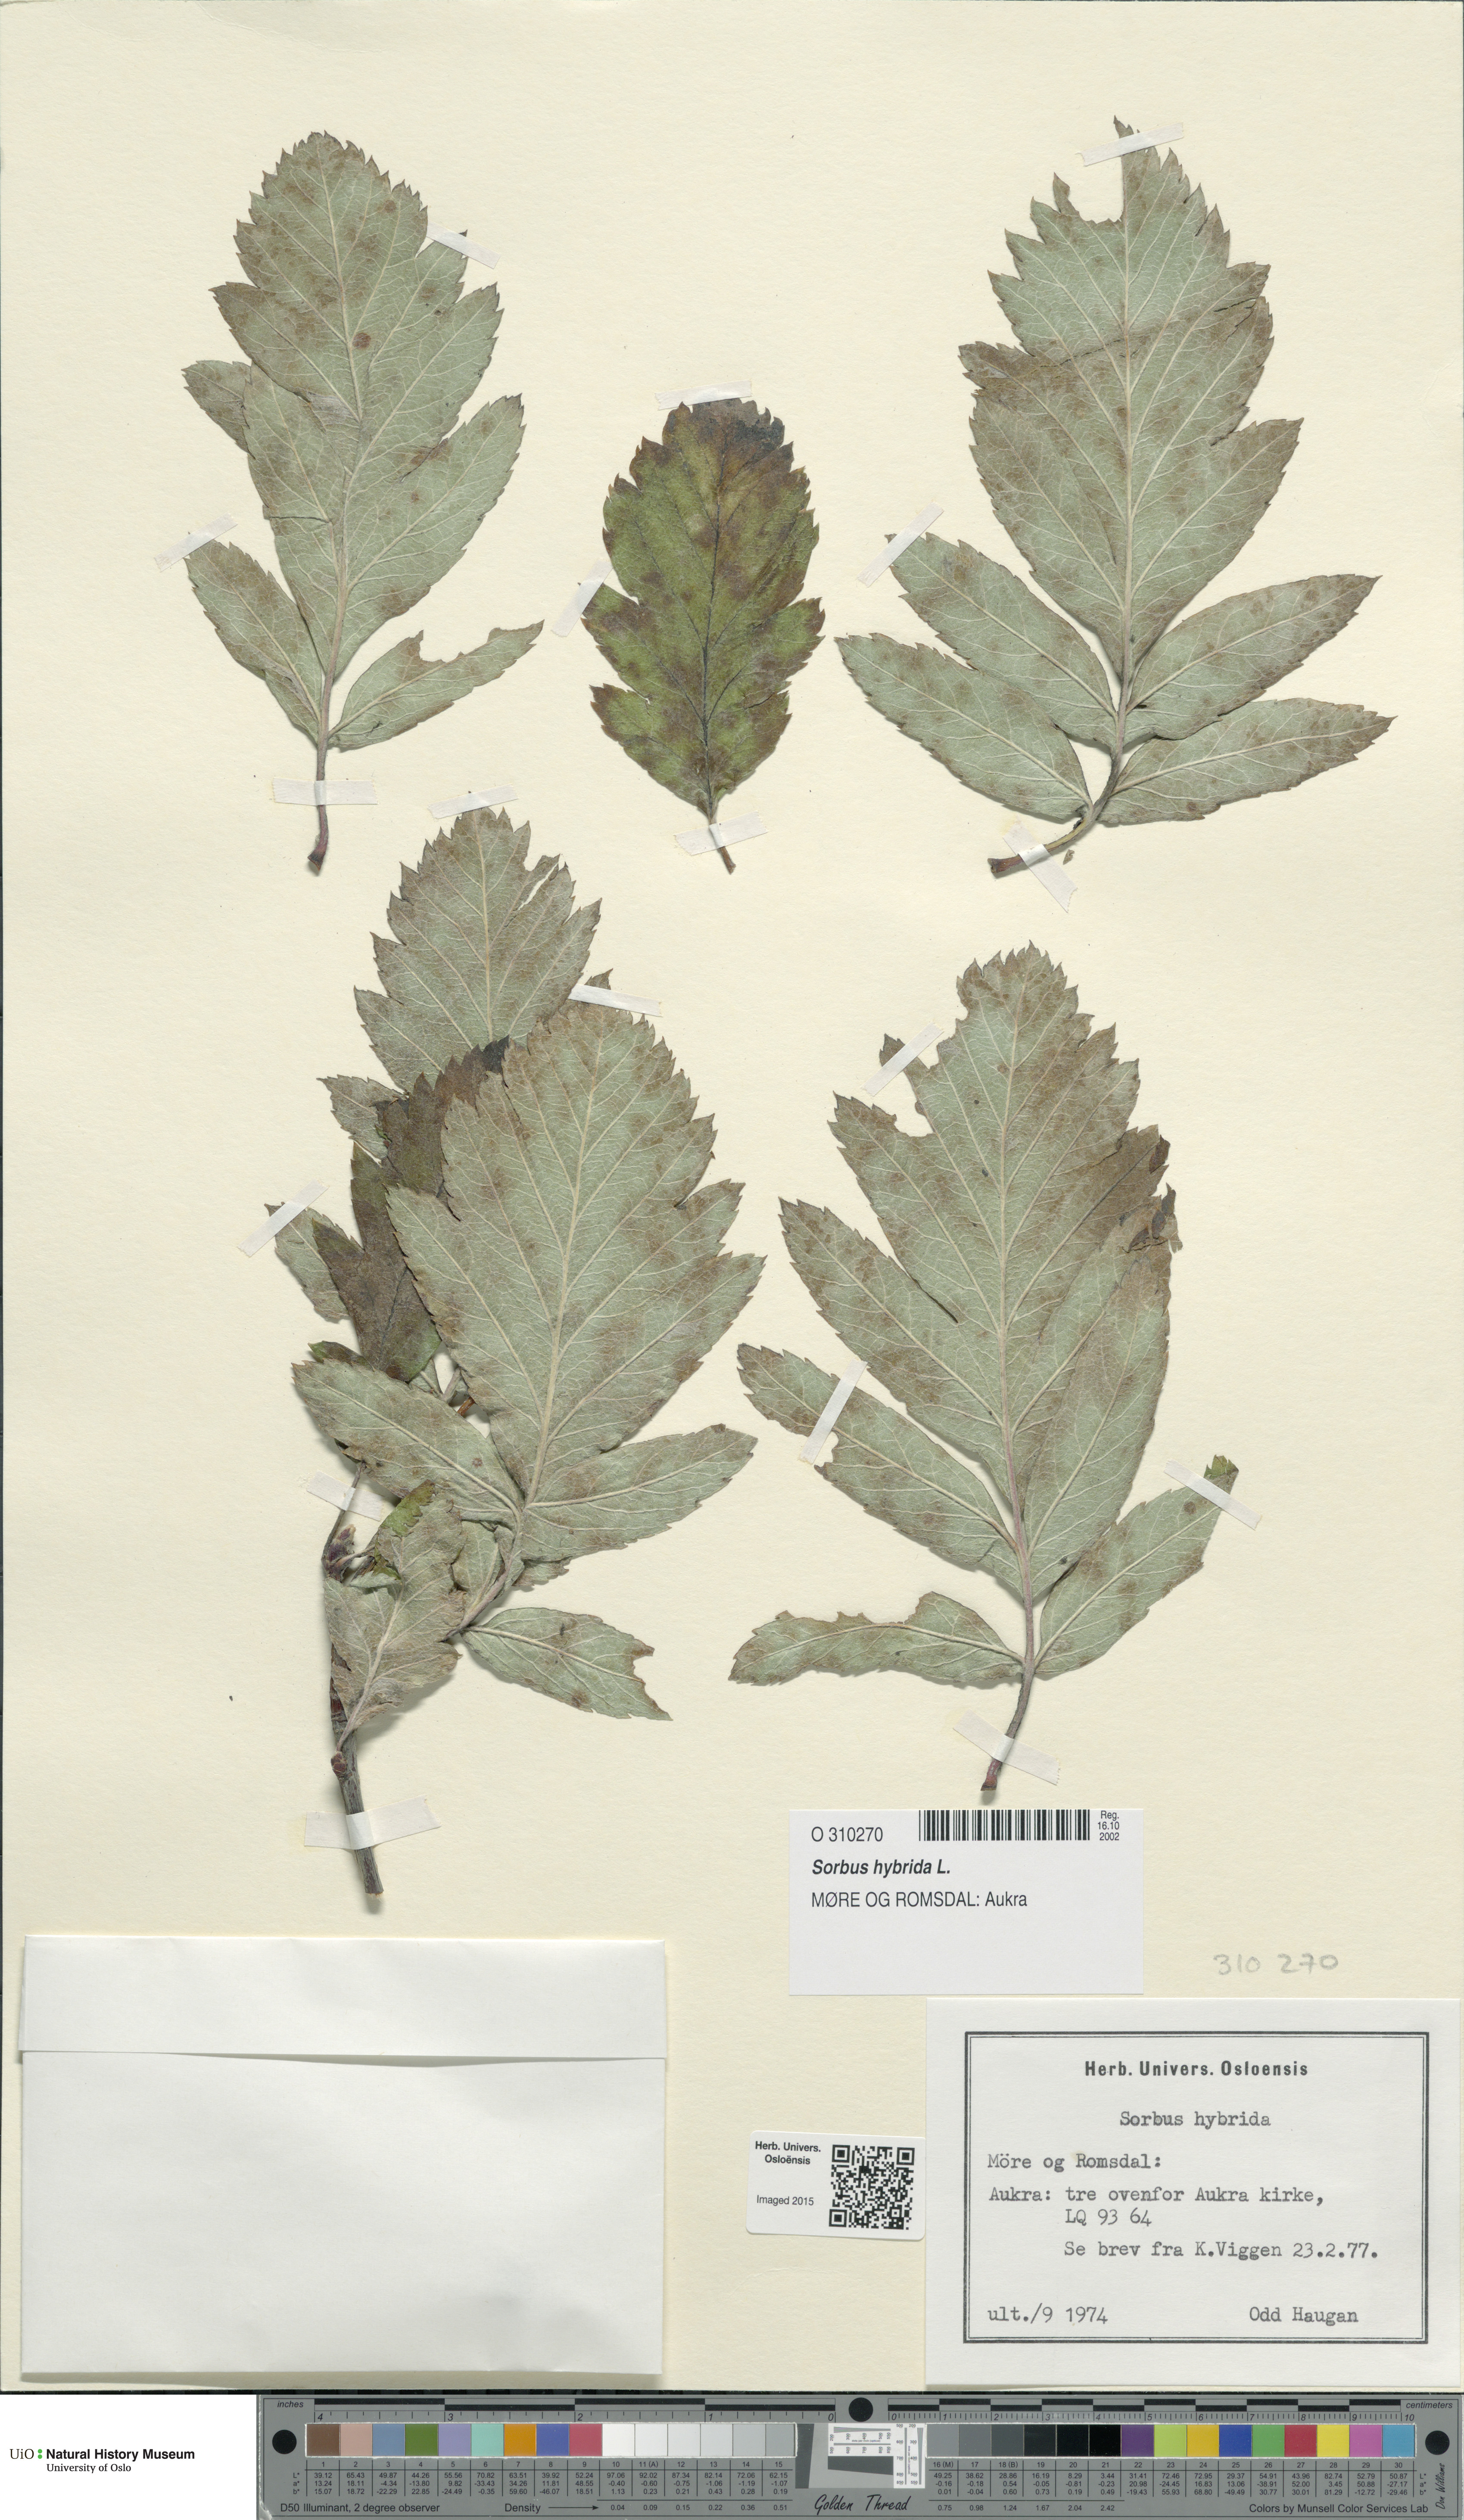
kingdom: Plantae
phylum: Tracheophyta
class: Magnoliopsida
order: Rosales
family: Rosaceae
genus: Hedlundia
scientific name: Hedlundia hybrida
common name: Swedish service-tree
